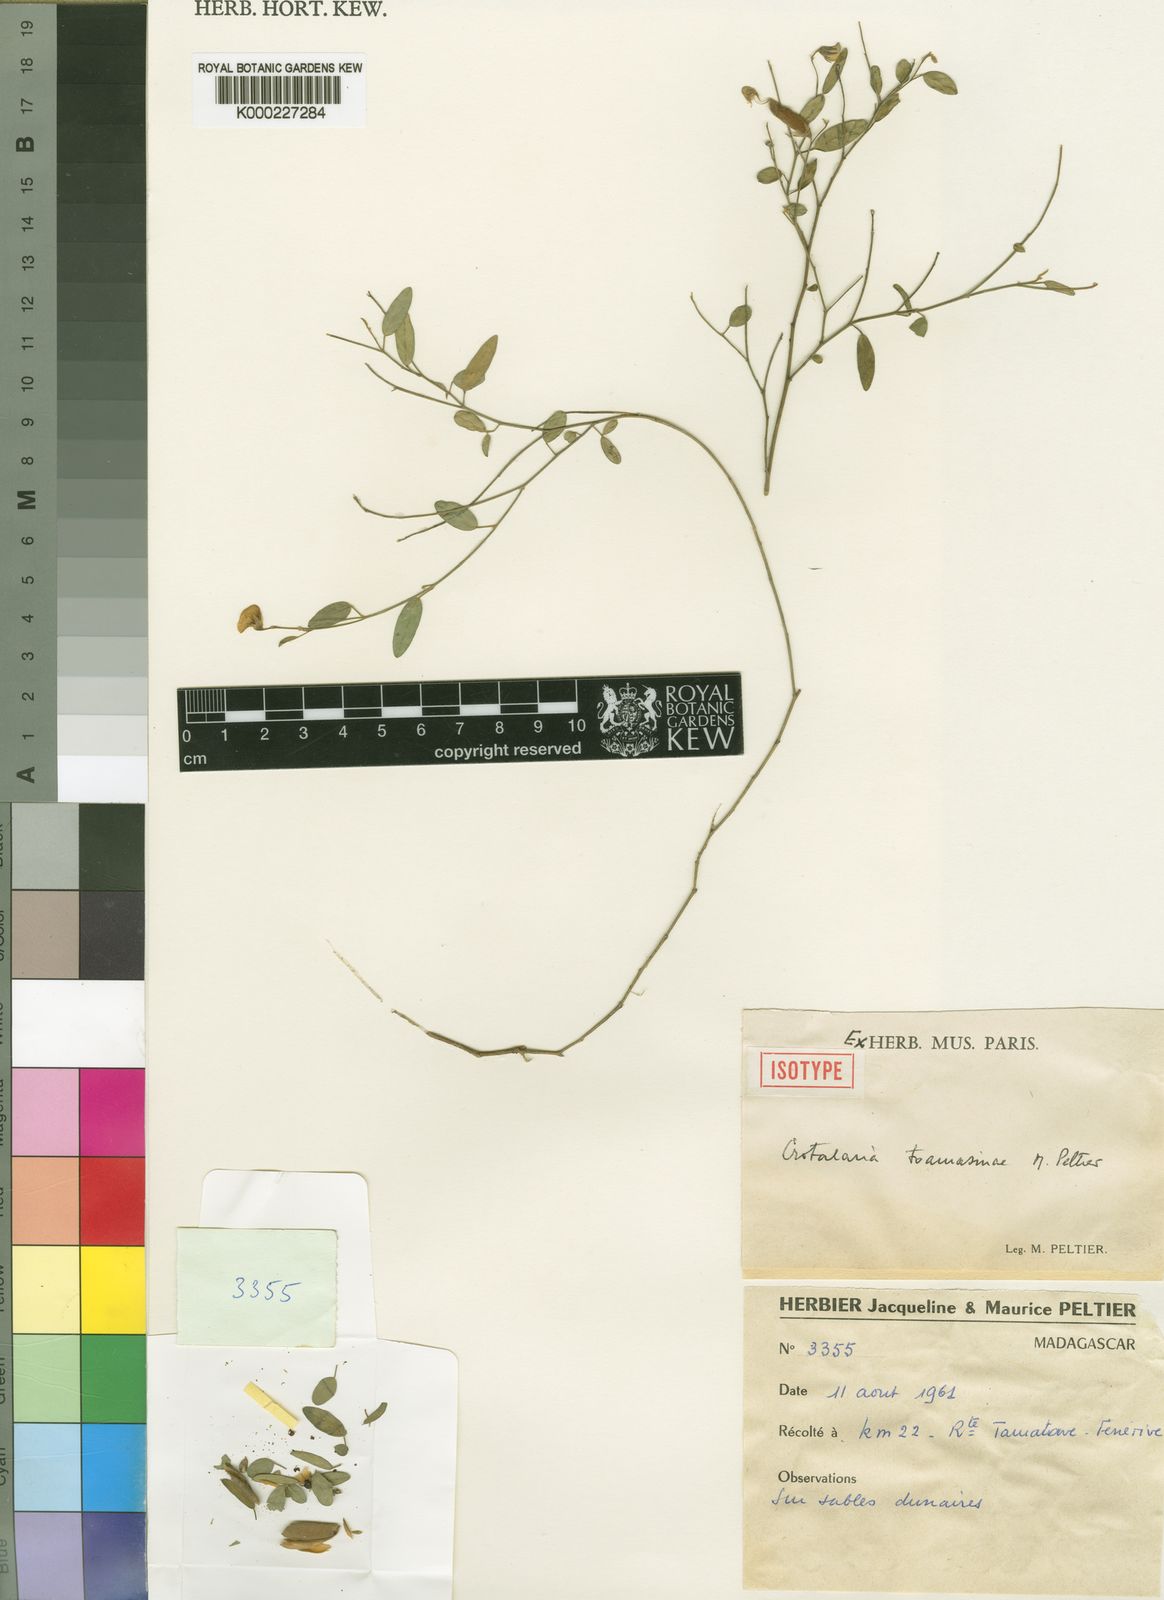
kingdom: Plantae
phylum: Tracheophyta
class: Magnoliopsida
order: Fabales
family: Fabaceae
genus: Crotalaria
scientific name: Crotalaria toamasinae
